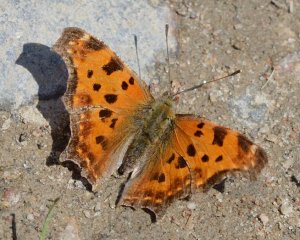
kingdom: Animalia
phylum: Arthropoda
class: Insecta
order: Lepidoptera
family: Nymphalidae
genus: Polygonia
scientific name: Polygonia comma
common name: Eastern Comma
